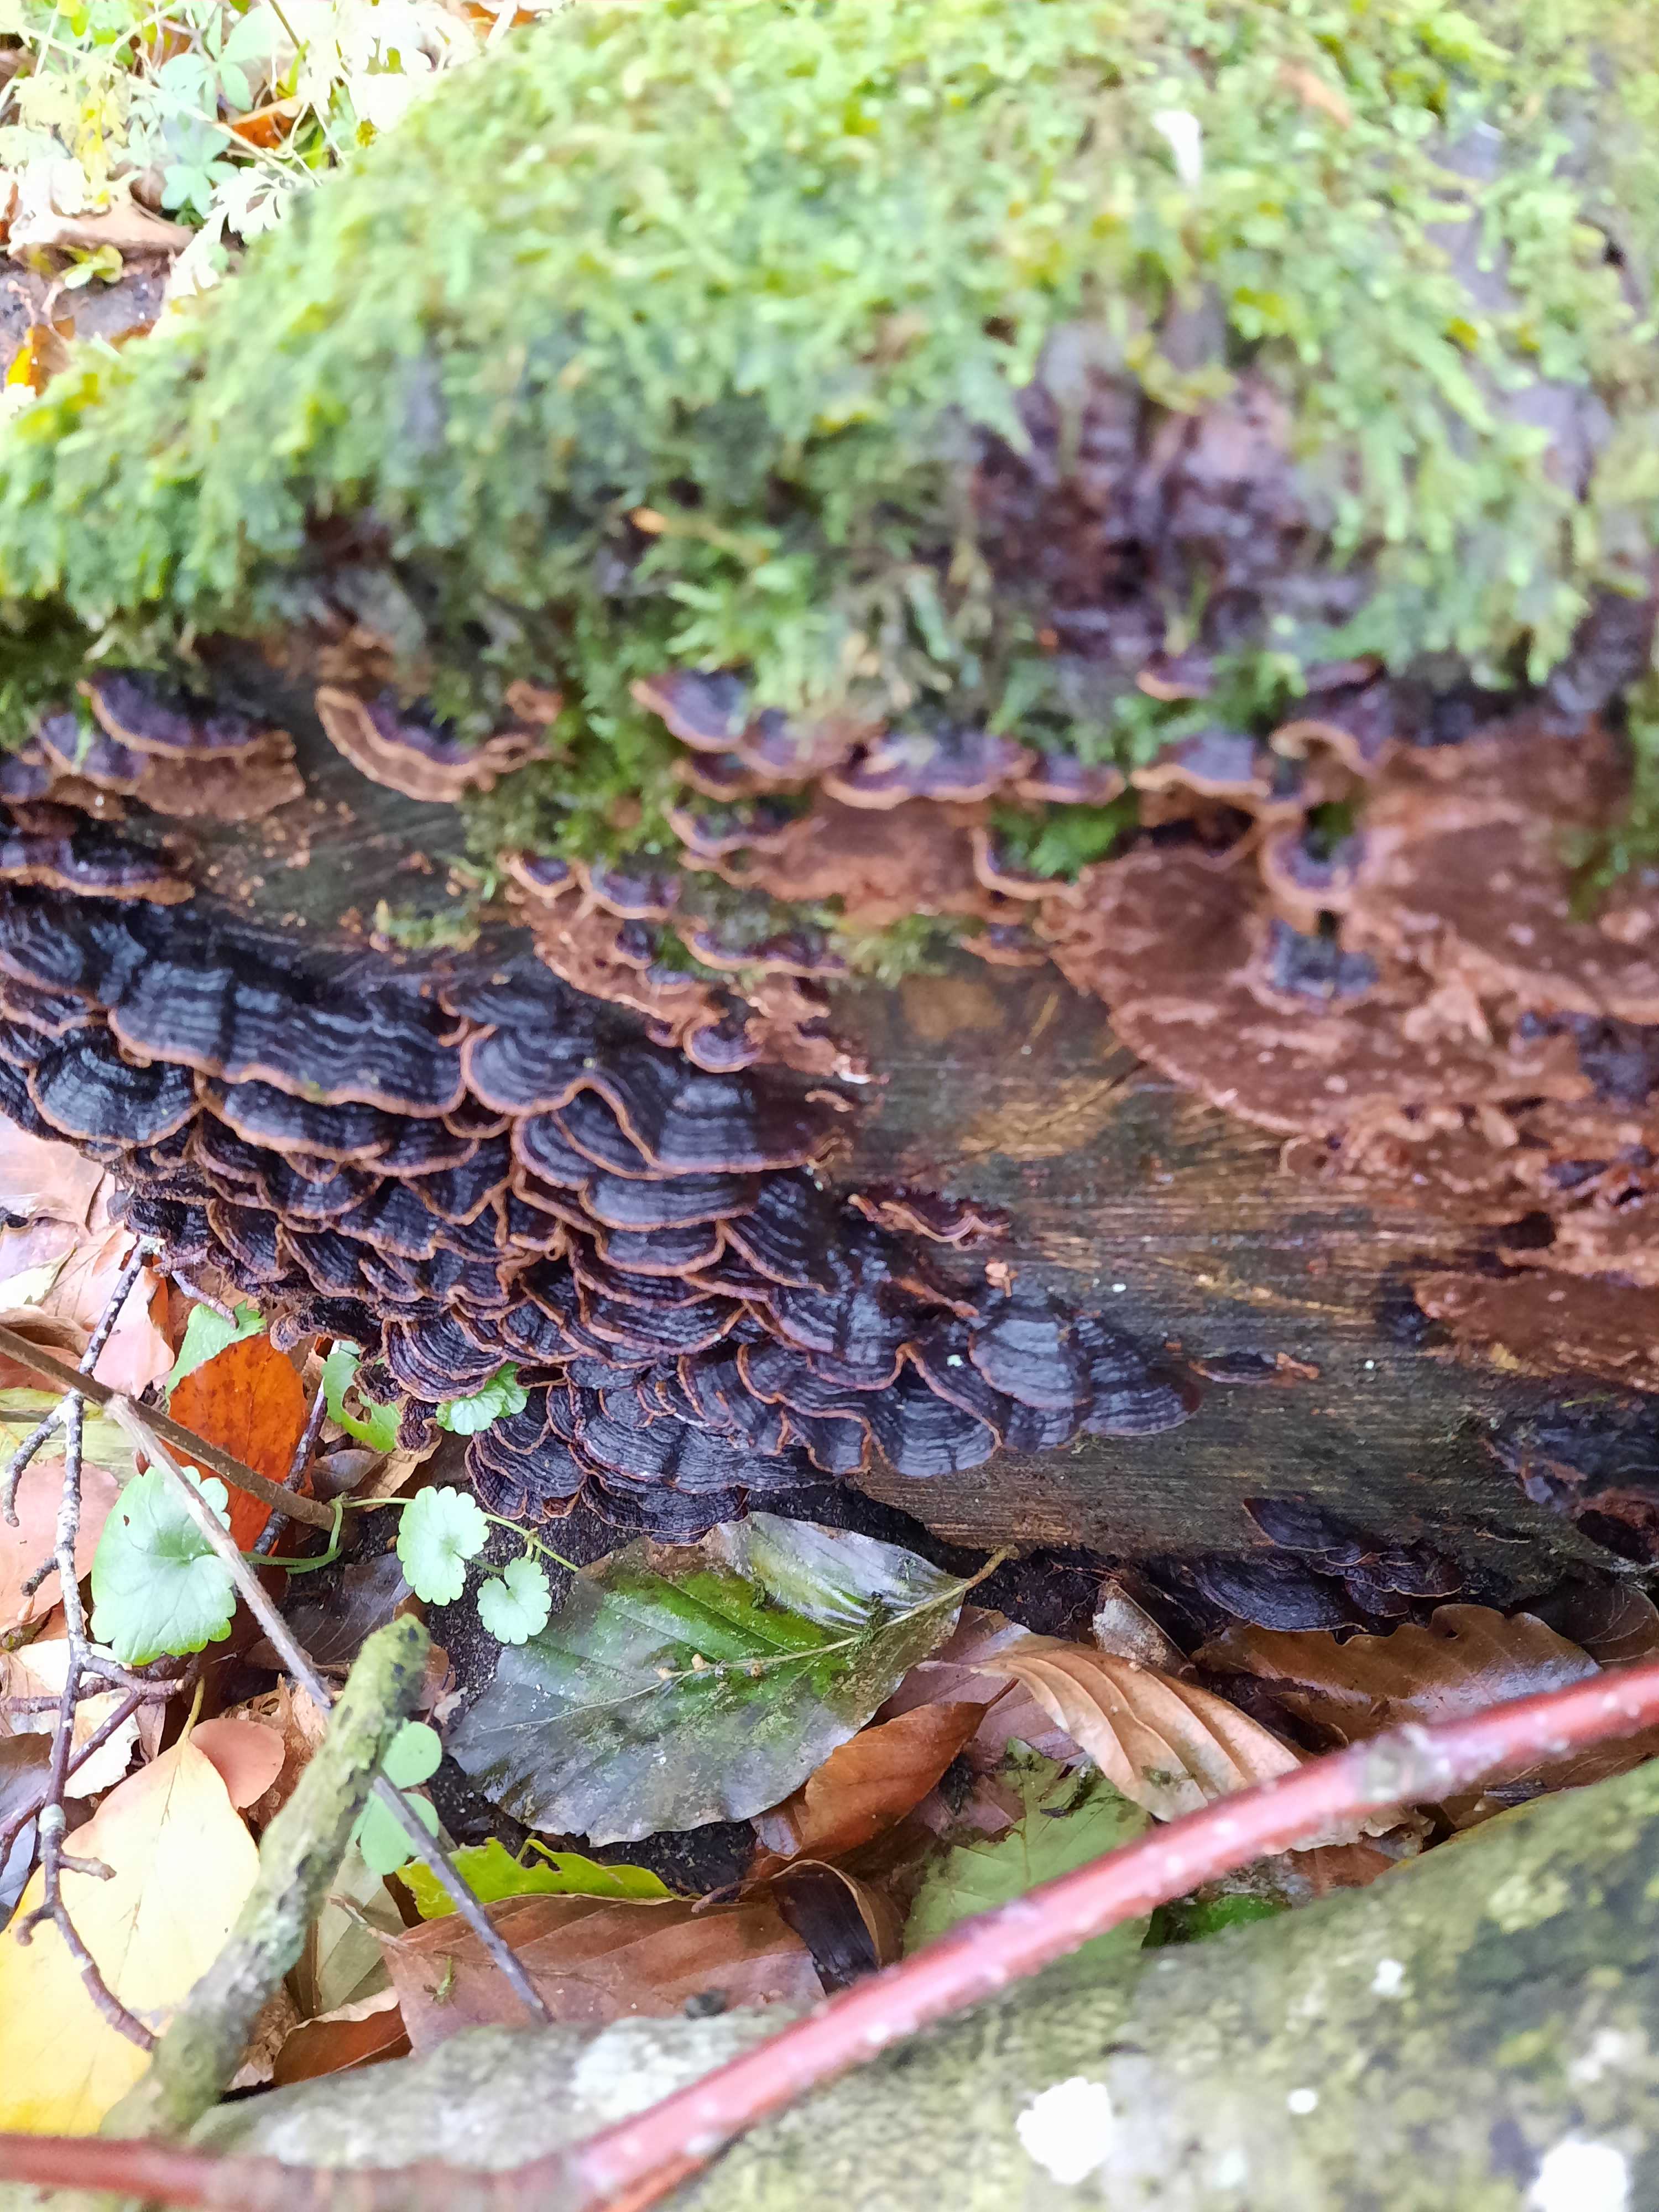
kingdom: Fungi
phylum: Basidiomycota
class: Agaricomycetes
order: Hymenochaetales
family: Hymenochaetaceae
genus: Hymenochaete
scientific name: Hymenochaete rubiginosa
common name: stiv ruslædersvamp
